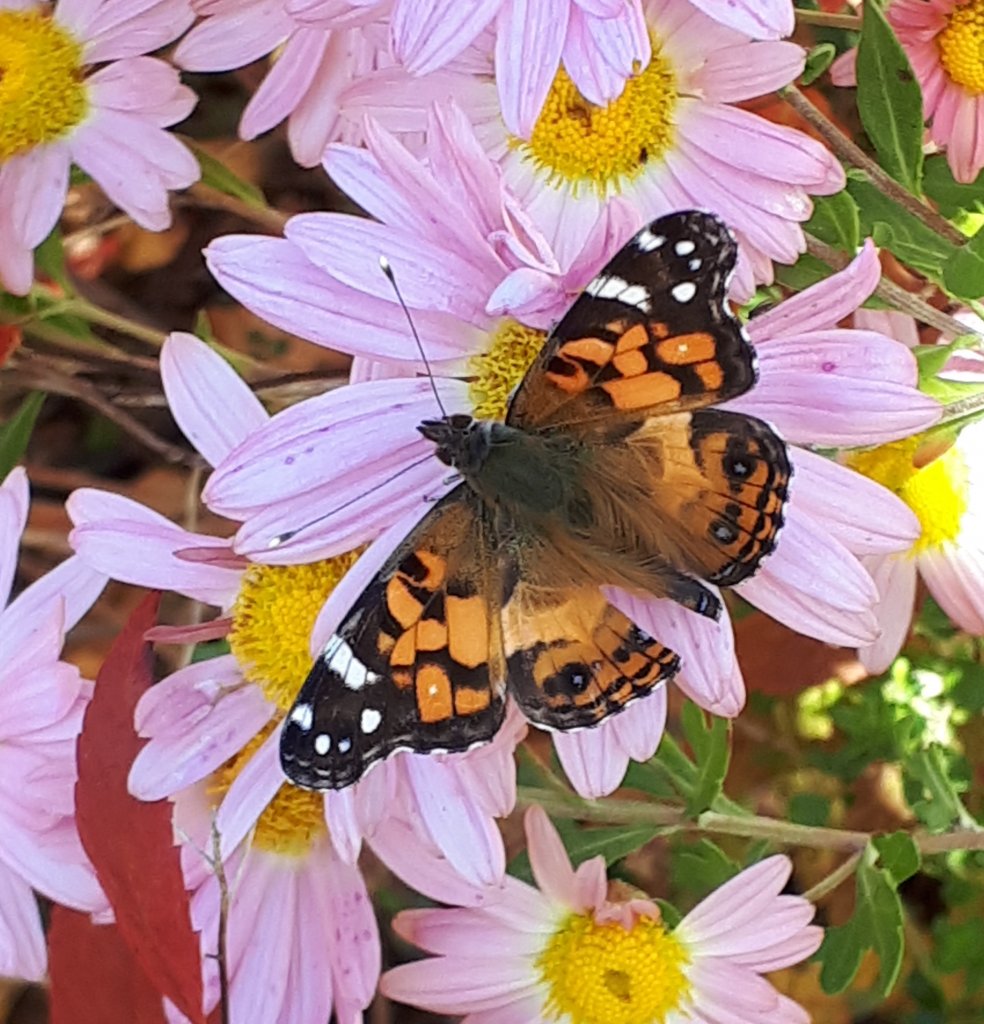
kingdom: Animalia
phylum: Arthropoda
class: Insecta
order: Lepidoptera
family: Nymphalidae
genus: Vanessa
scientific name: Vanessa virginiensis
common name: American Lady
